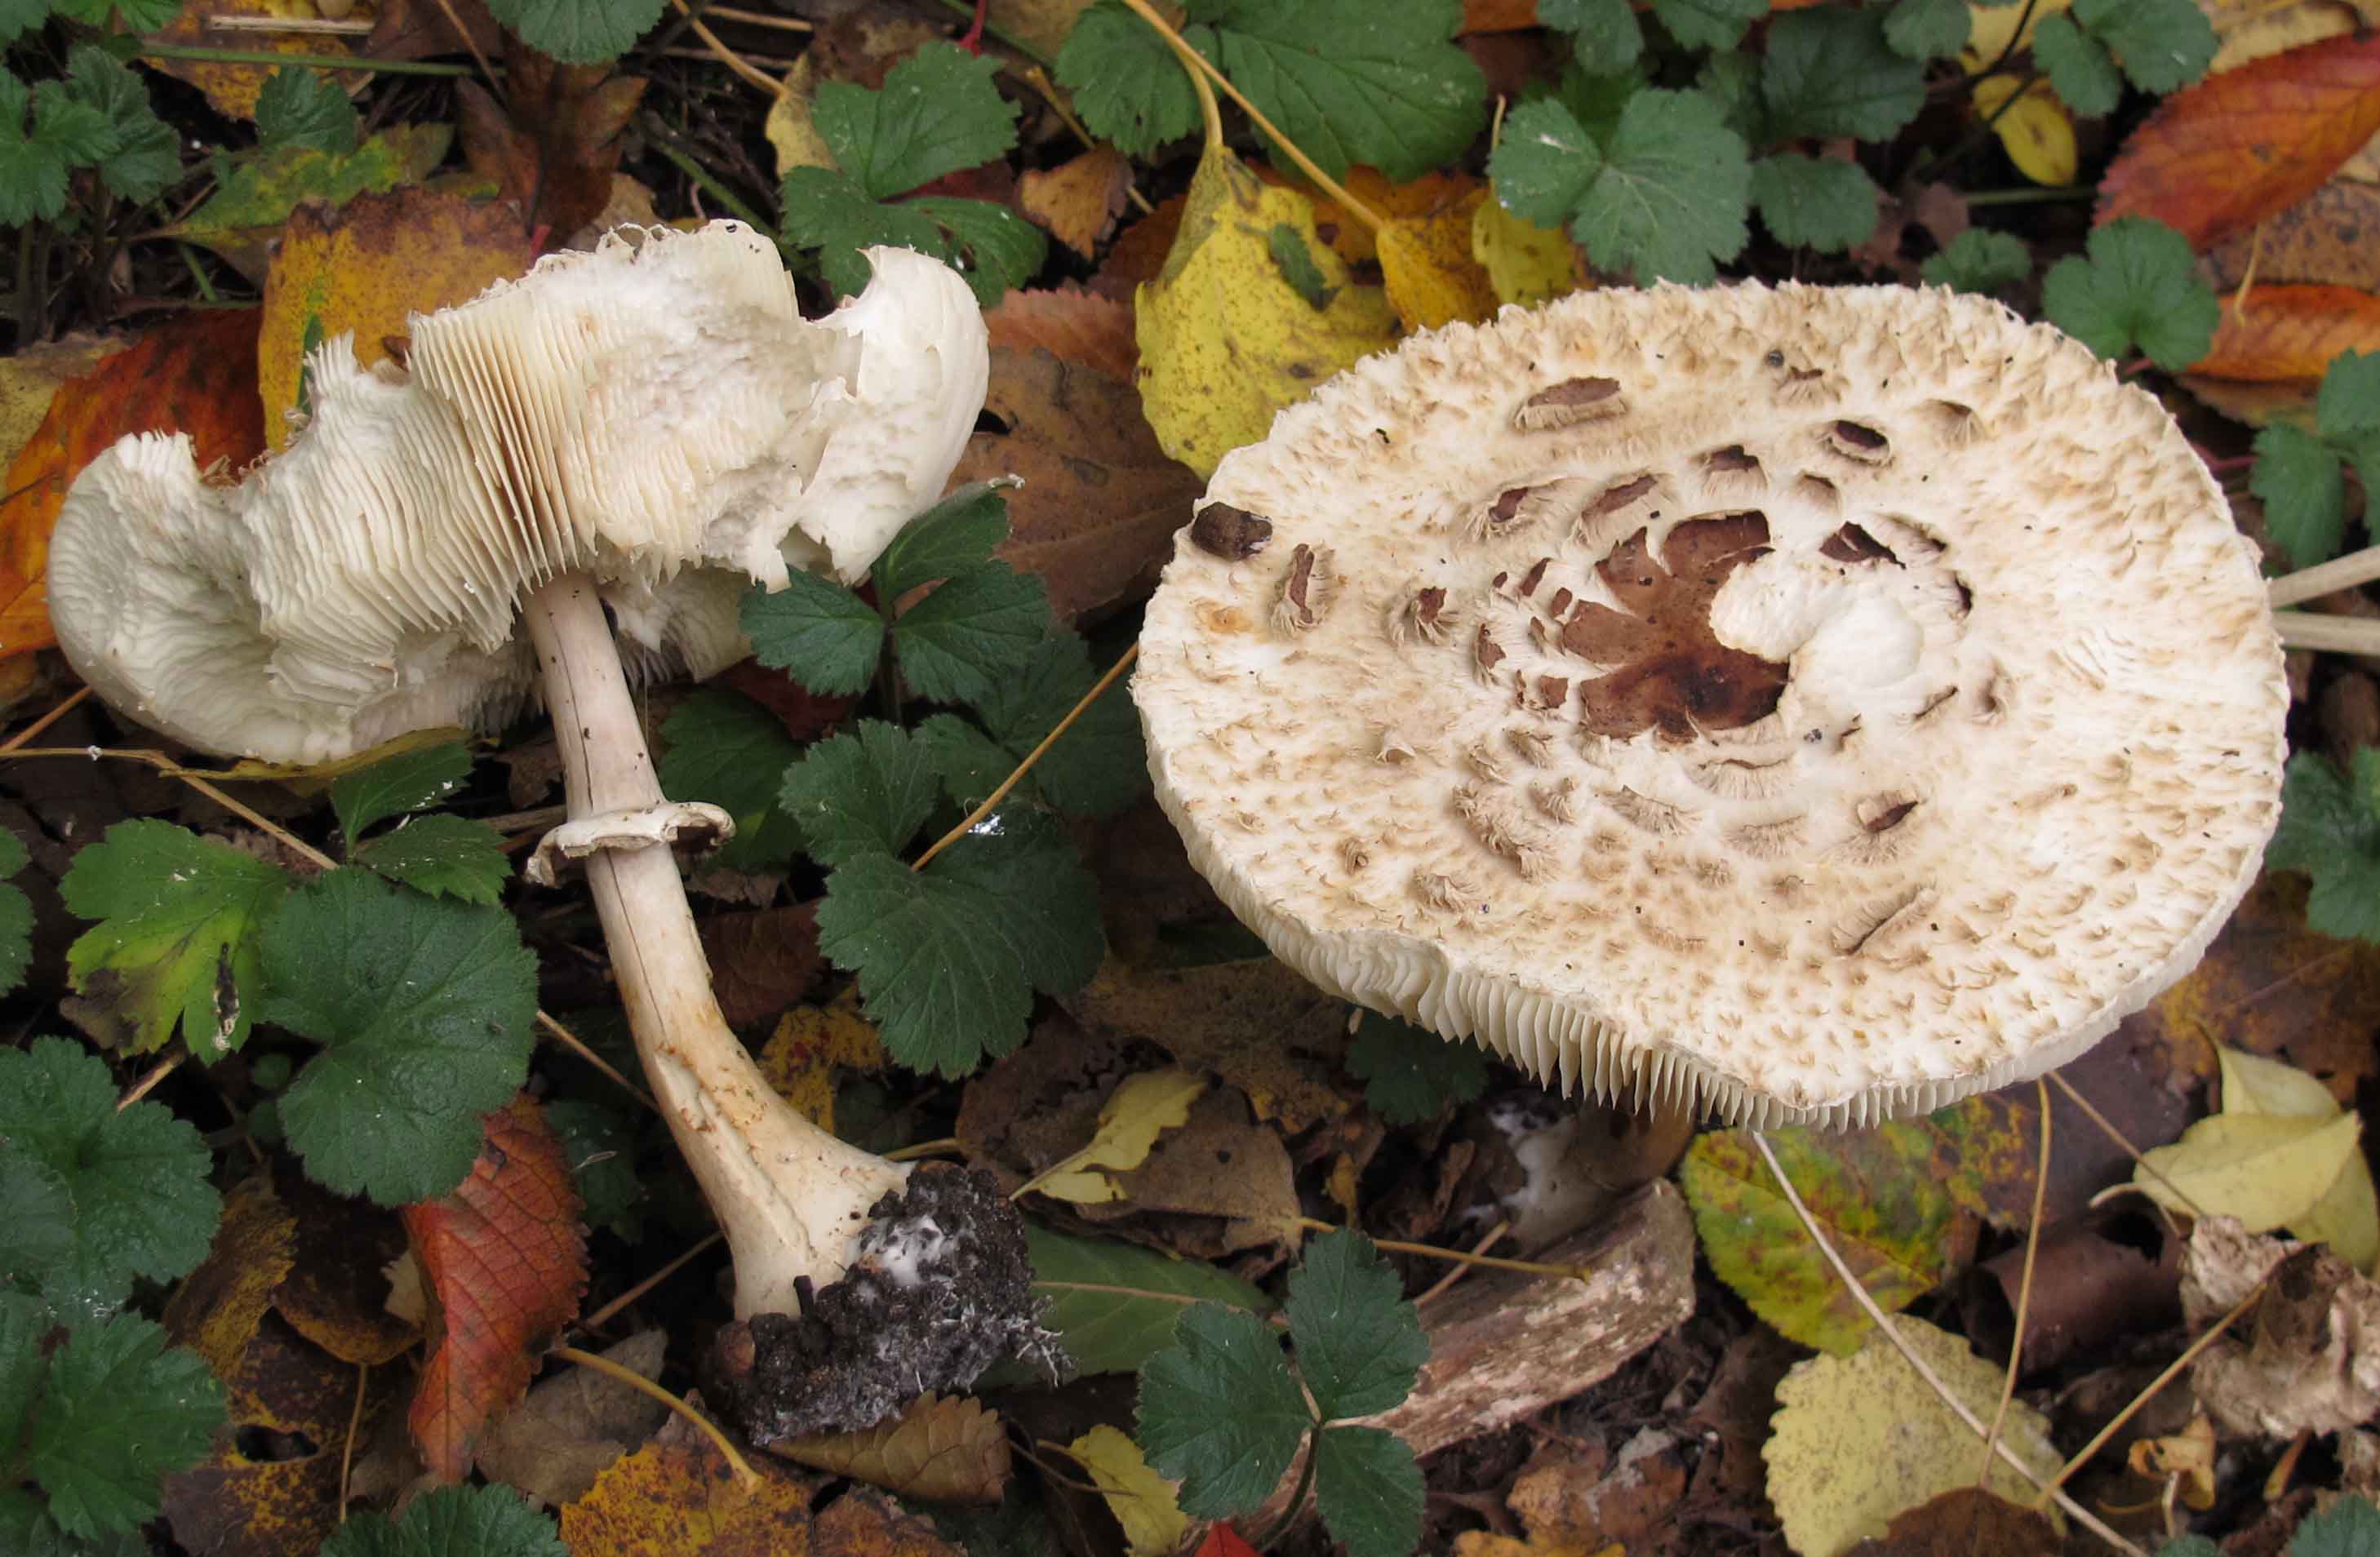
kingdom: Fungi
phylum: Basidiomycota
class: Agaricomycetes
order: Agaricales
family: Agaricaceae
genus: Chlorophyllum
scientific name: Chlorophyllum brunneum
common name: giftig rabarberhat
